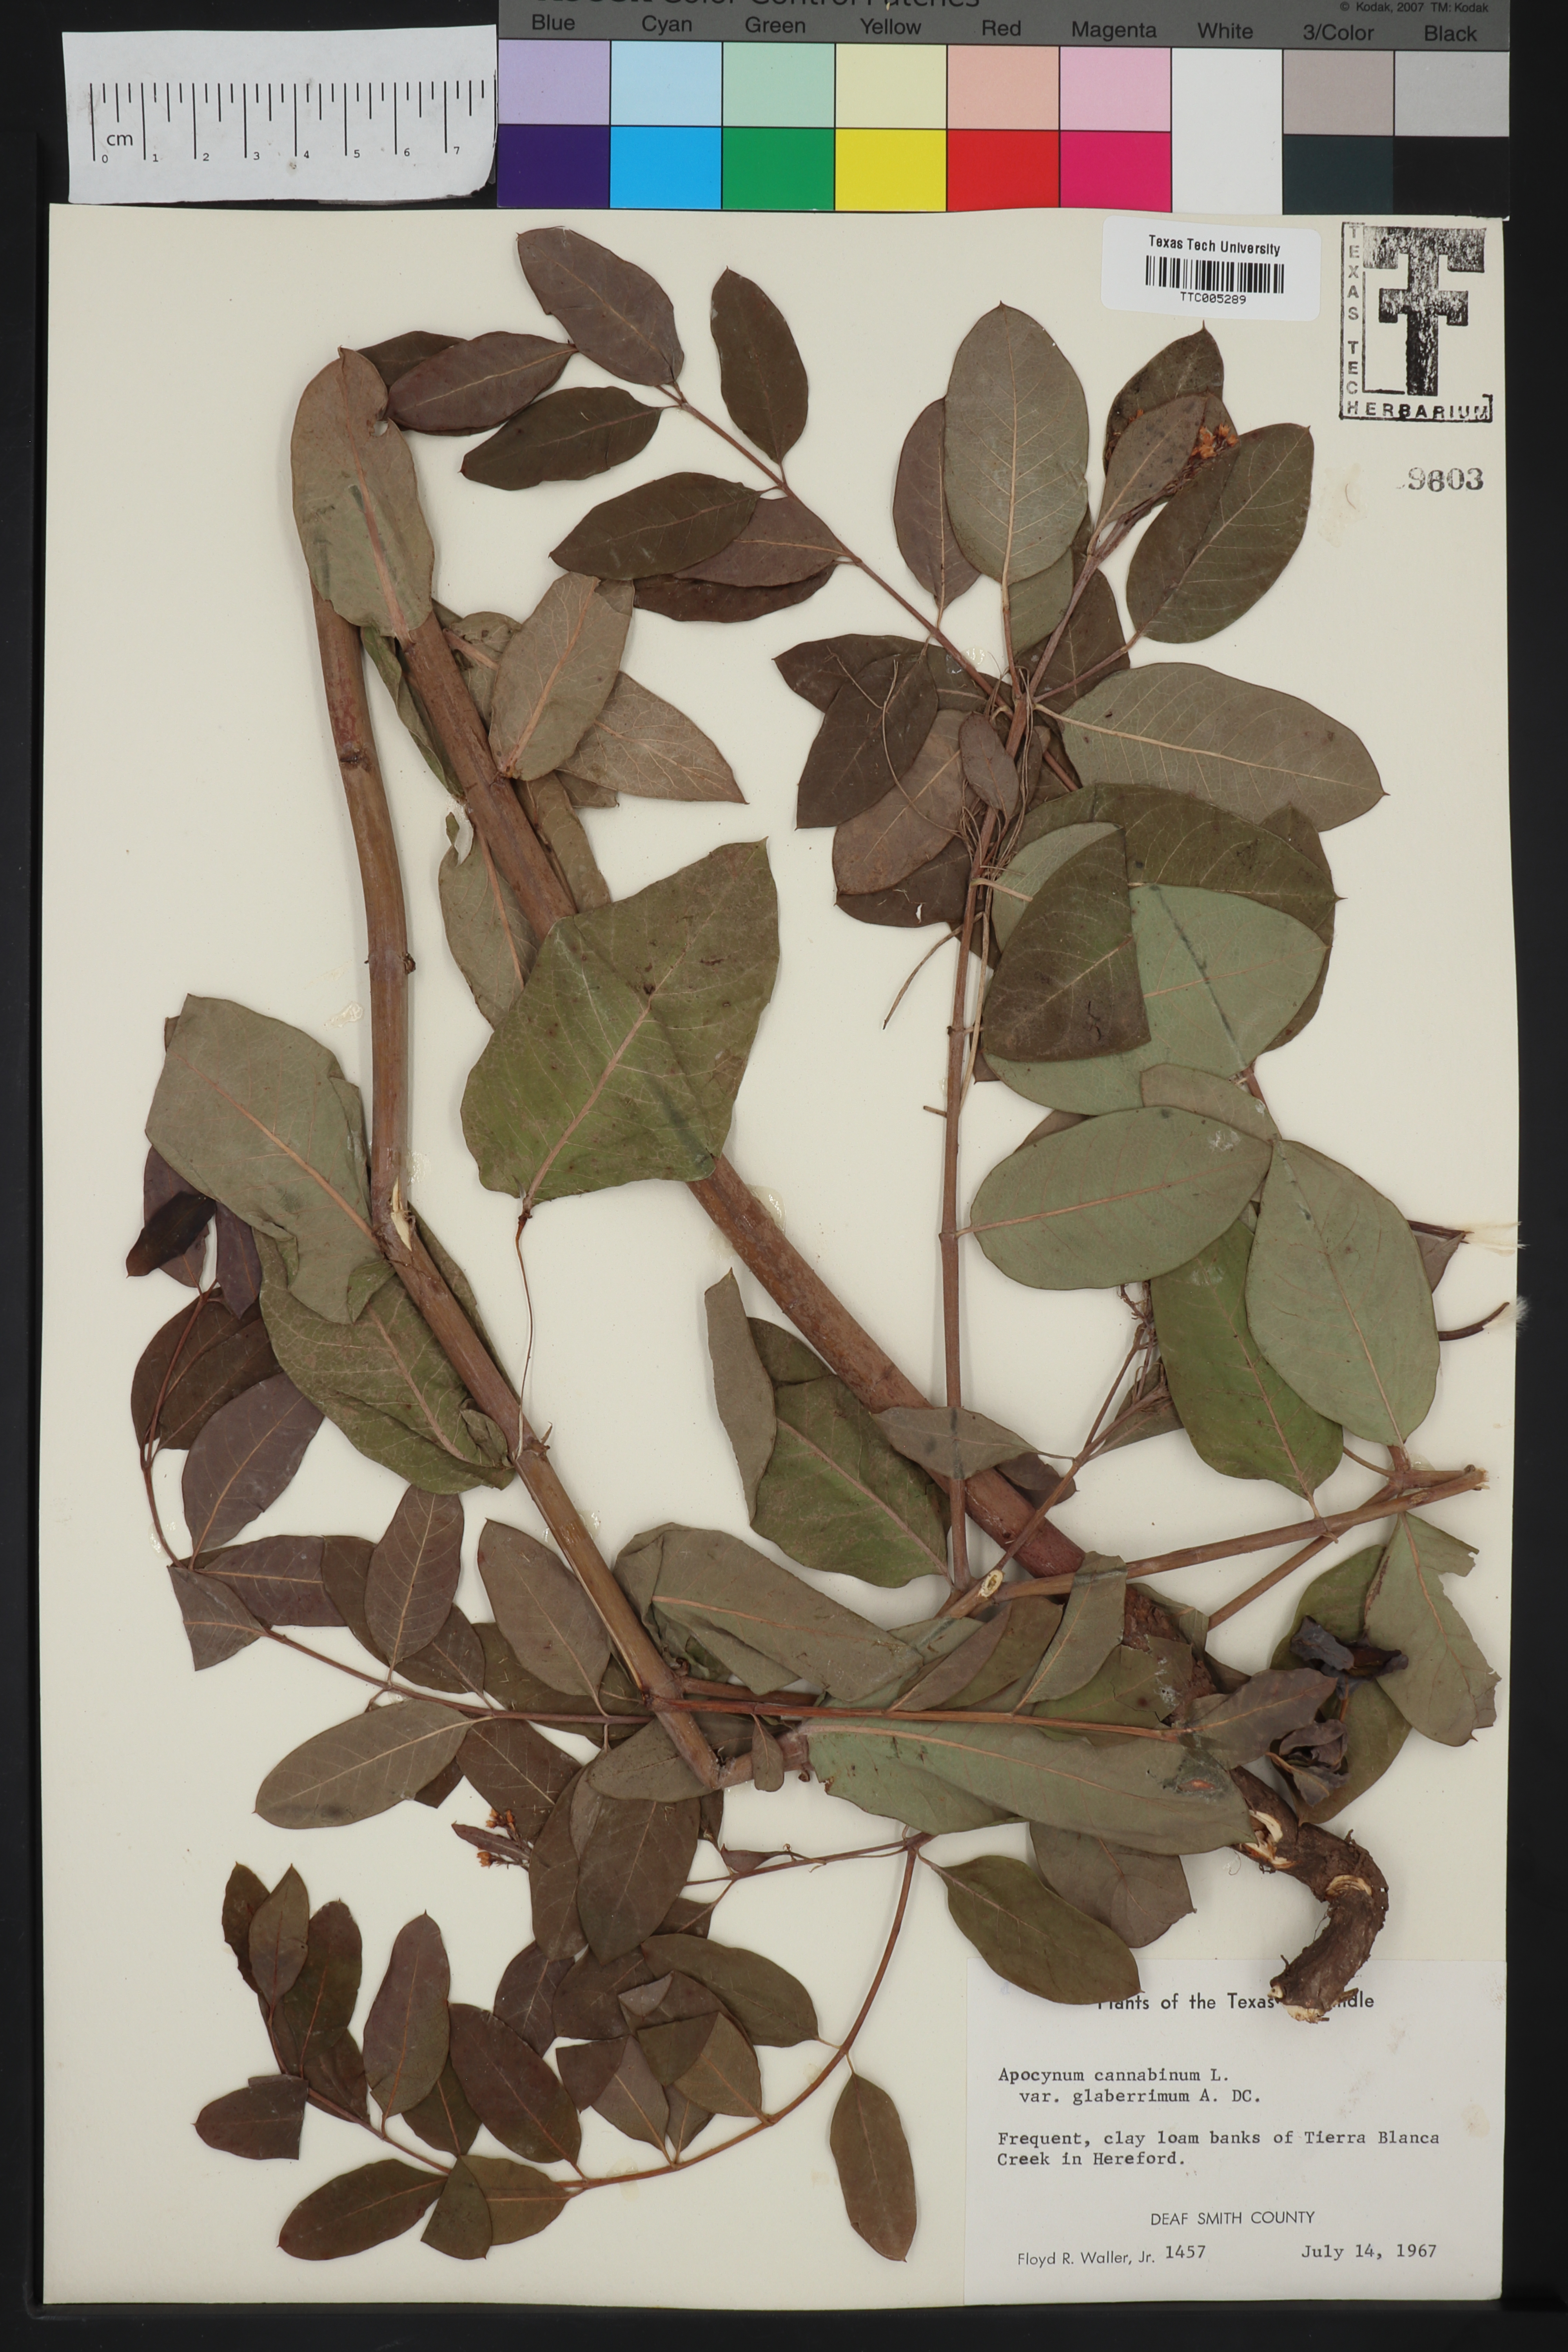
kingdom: Plantae
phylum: Tracheophyta
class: Magnoliopsida
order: Gentianales
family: Apocynaceae
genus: Apocynum
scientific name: Apocynum cannabinum
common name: Hemp dogbane
